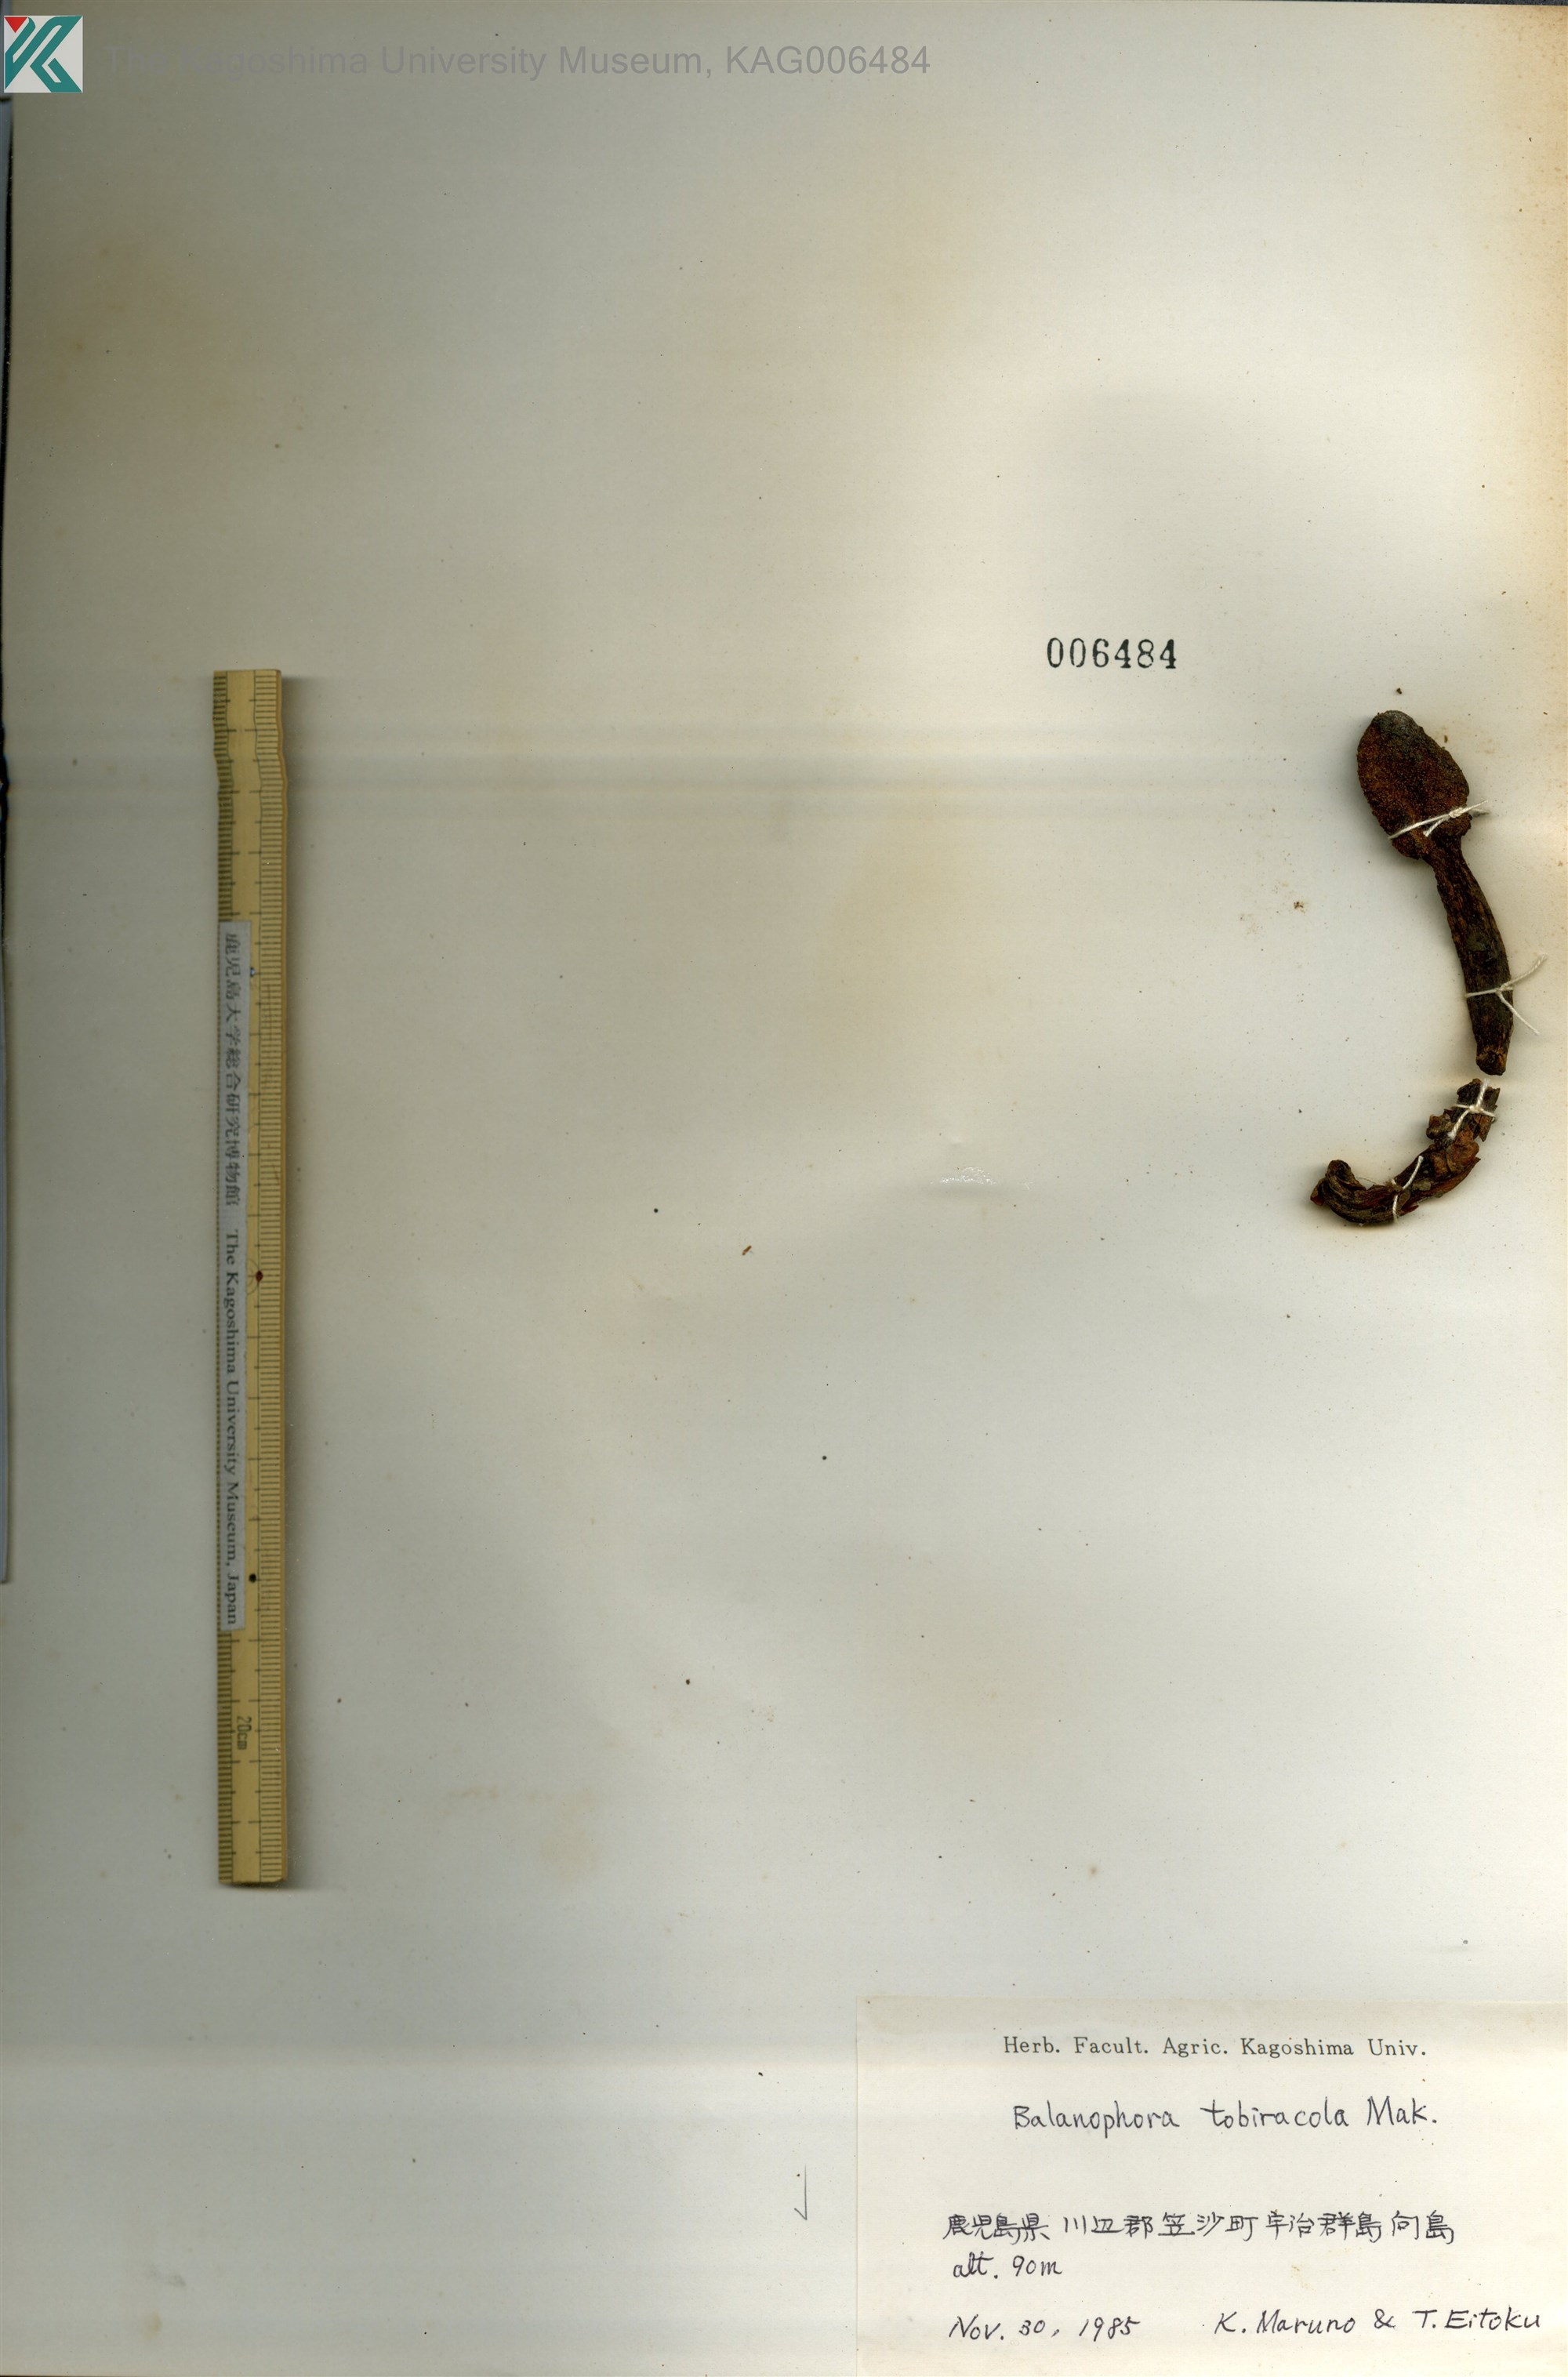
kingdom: Plantae
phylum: Tracheophyta
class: Magnoliopsida
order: Santalales
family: Balanophoraceae
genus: Balanophora
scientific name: Balanophora tobiracola
